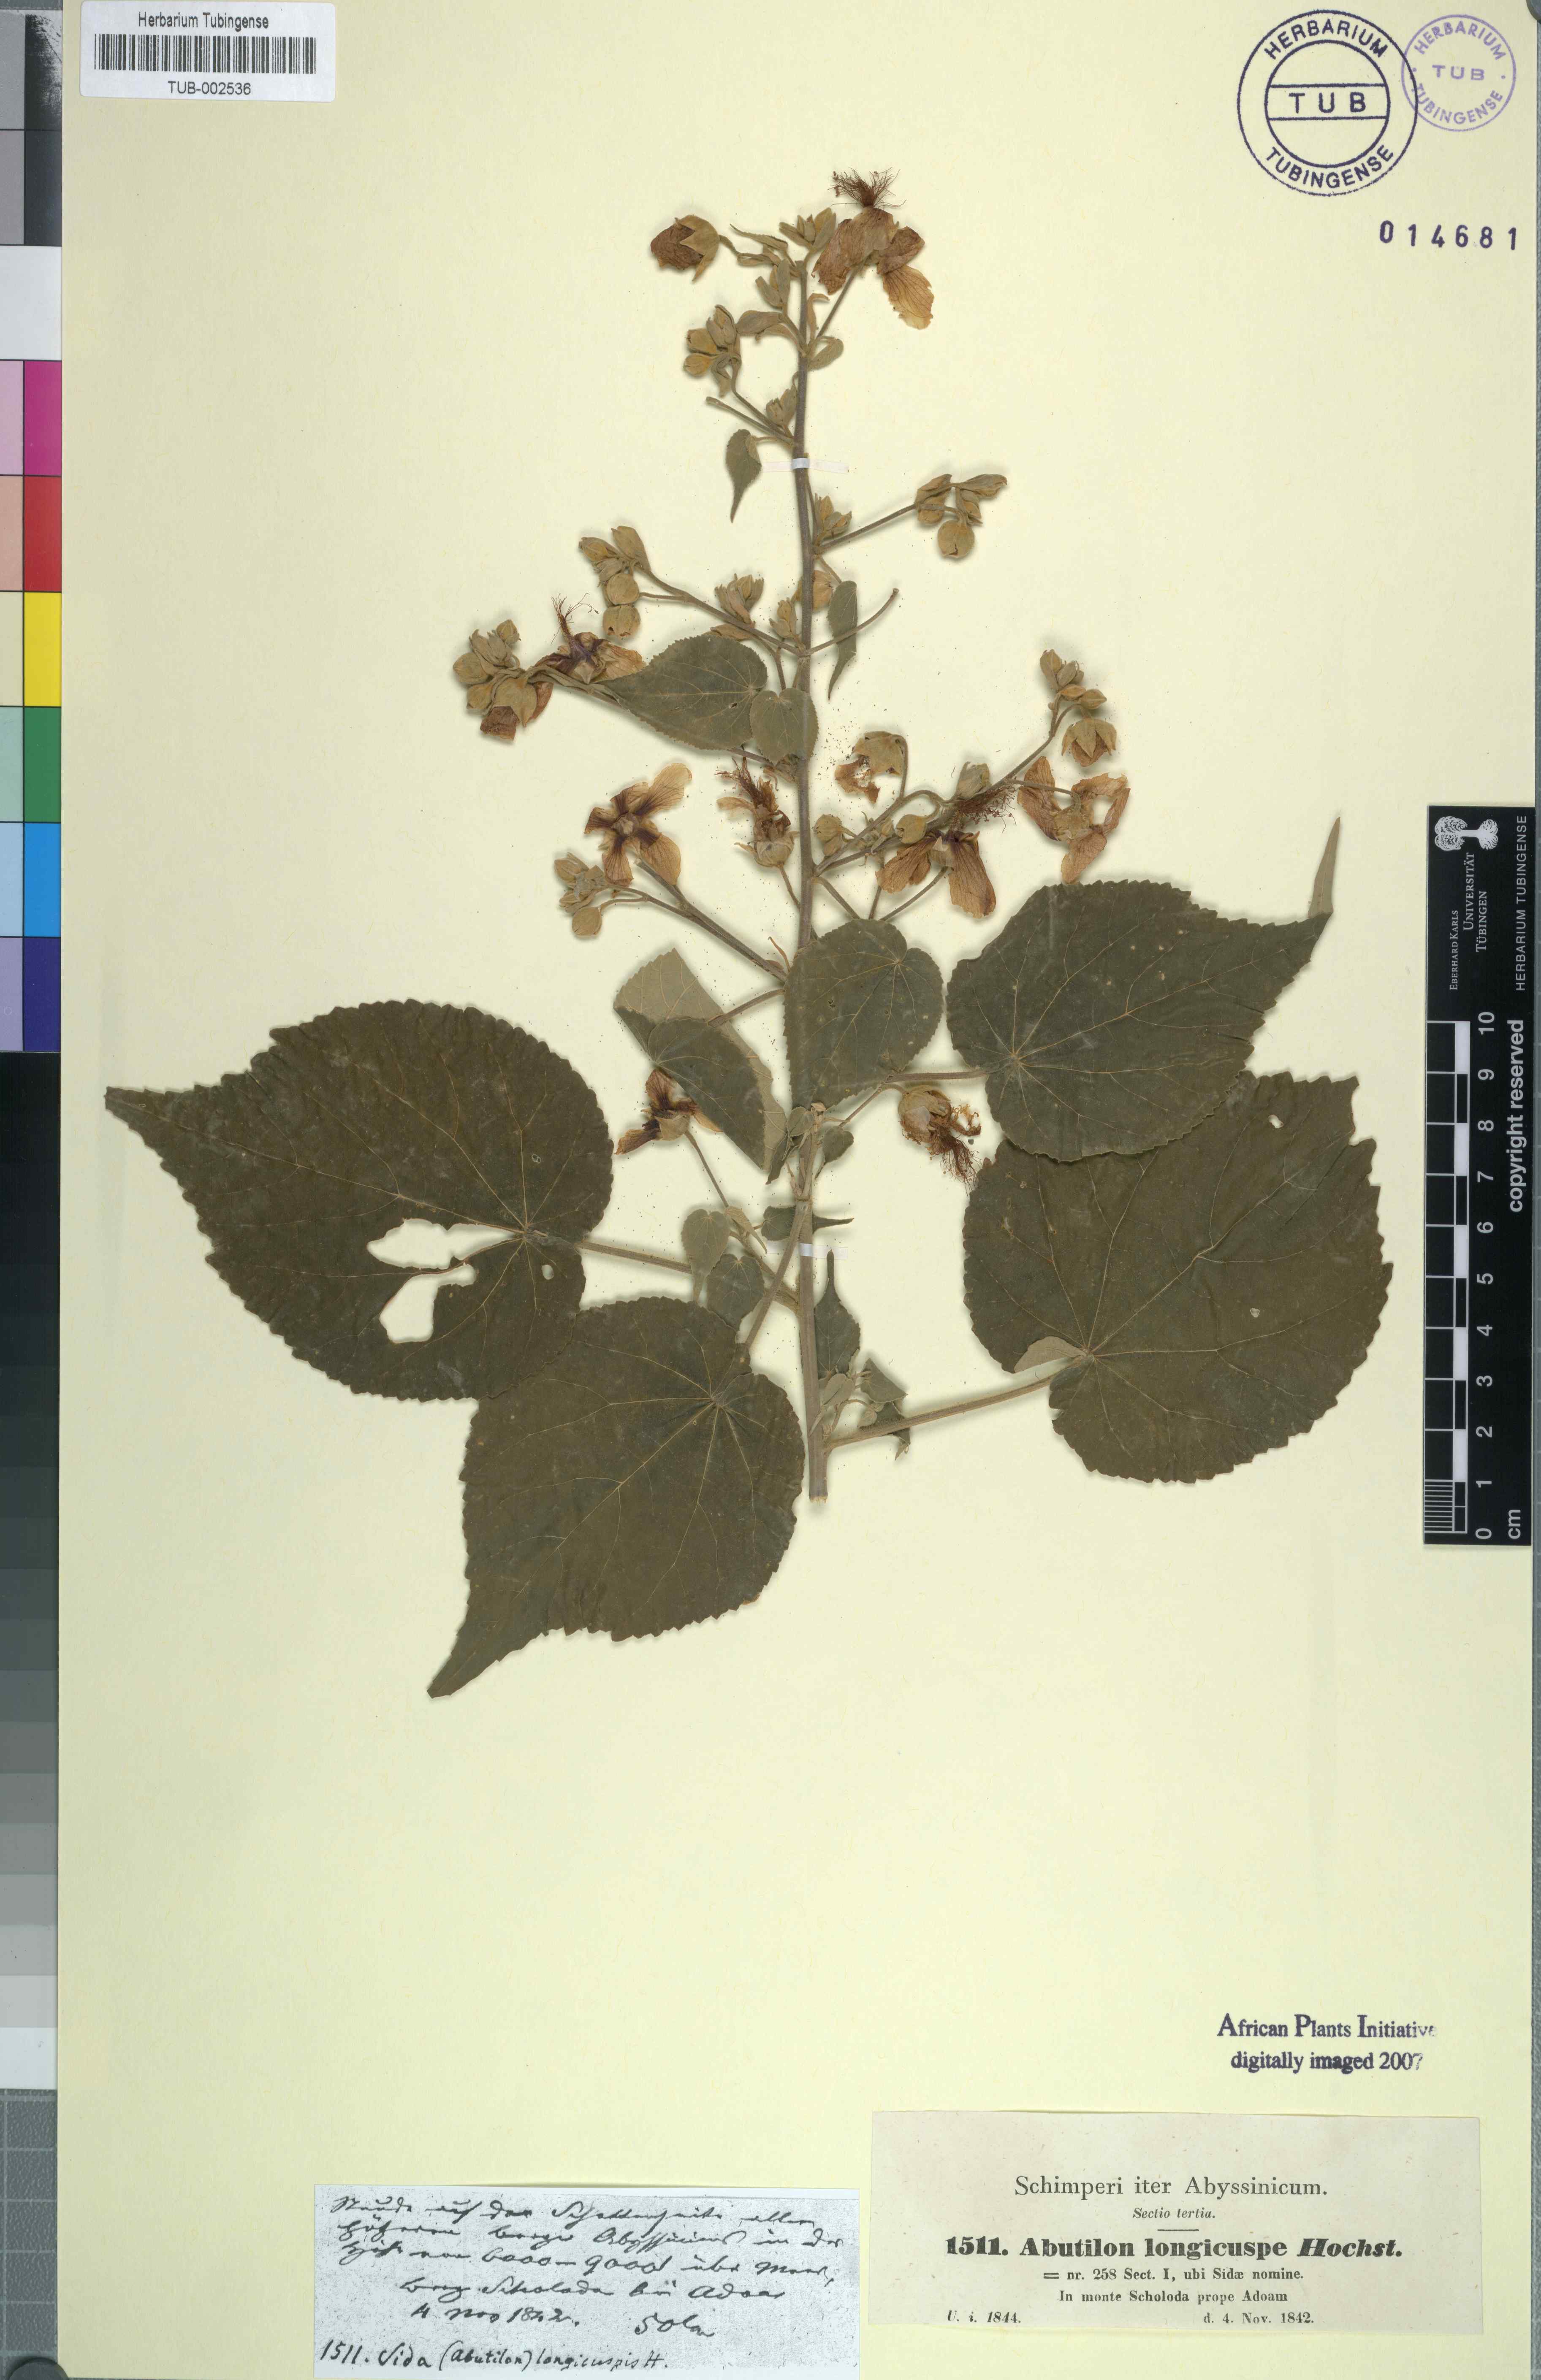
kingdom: Plantae
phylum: Tracheophyta
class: Magnoliopsida
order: Malvales
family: Malvaceae
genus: Abutilon
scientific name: Abutilon longicuspe
